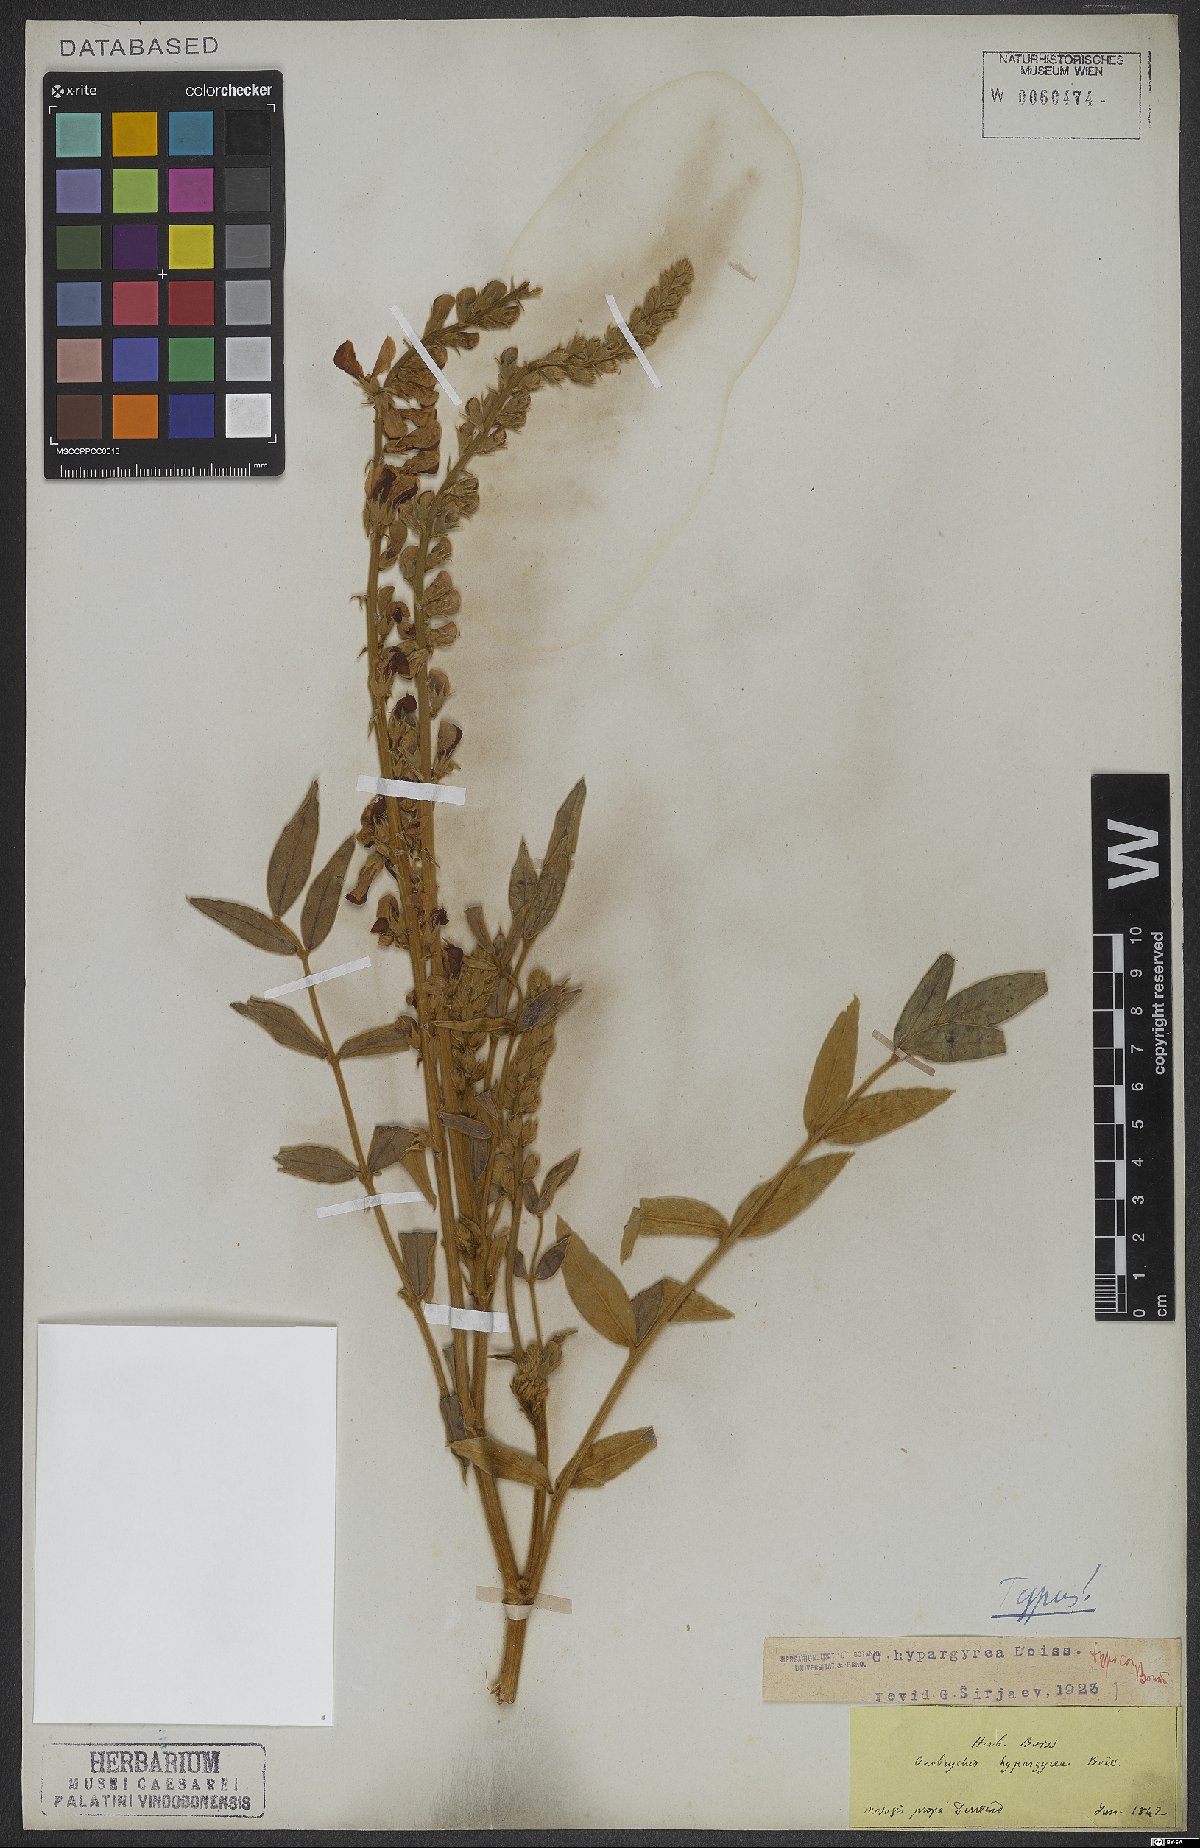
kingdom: Plantae
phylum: Tracheophyta
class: Magnoliopsida
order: Fabales
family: Fabaceae
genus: Onobrychis
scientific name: Onobrychis hypargyrea
